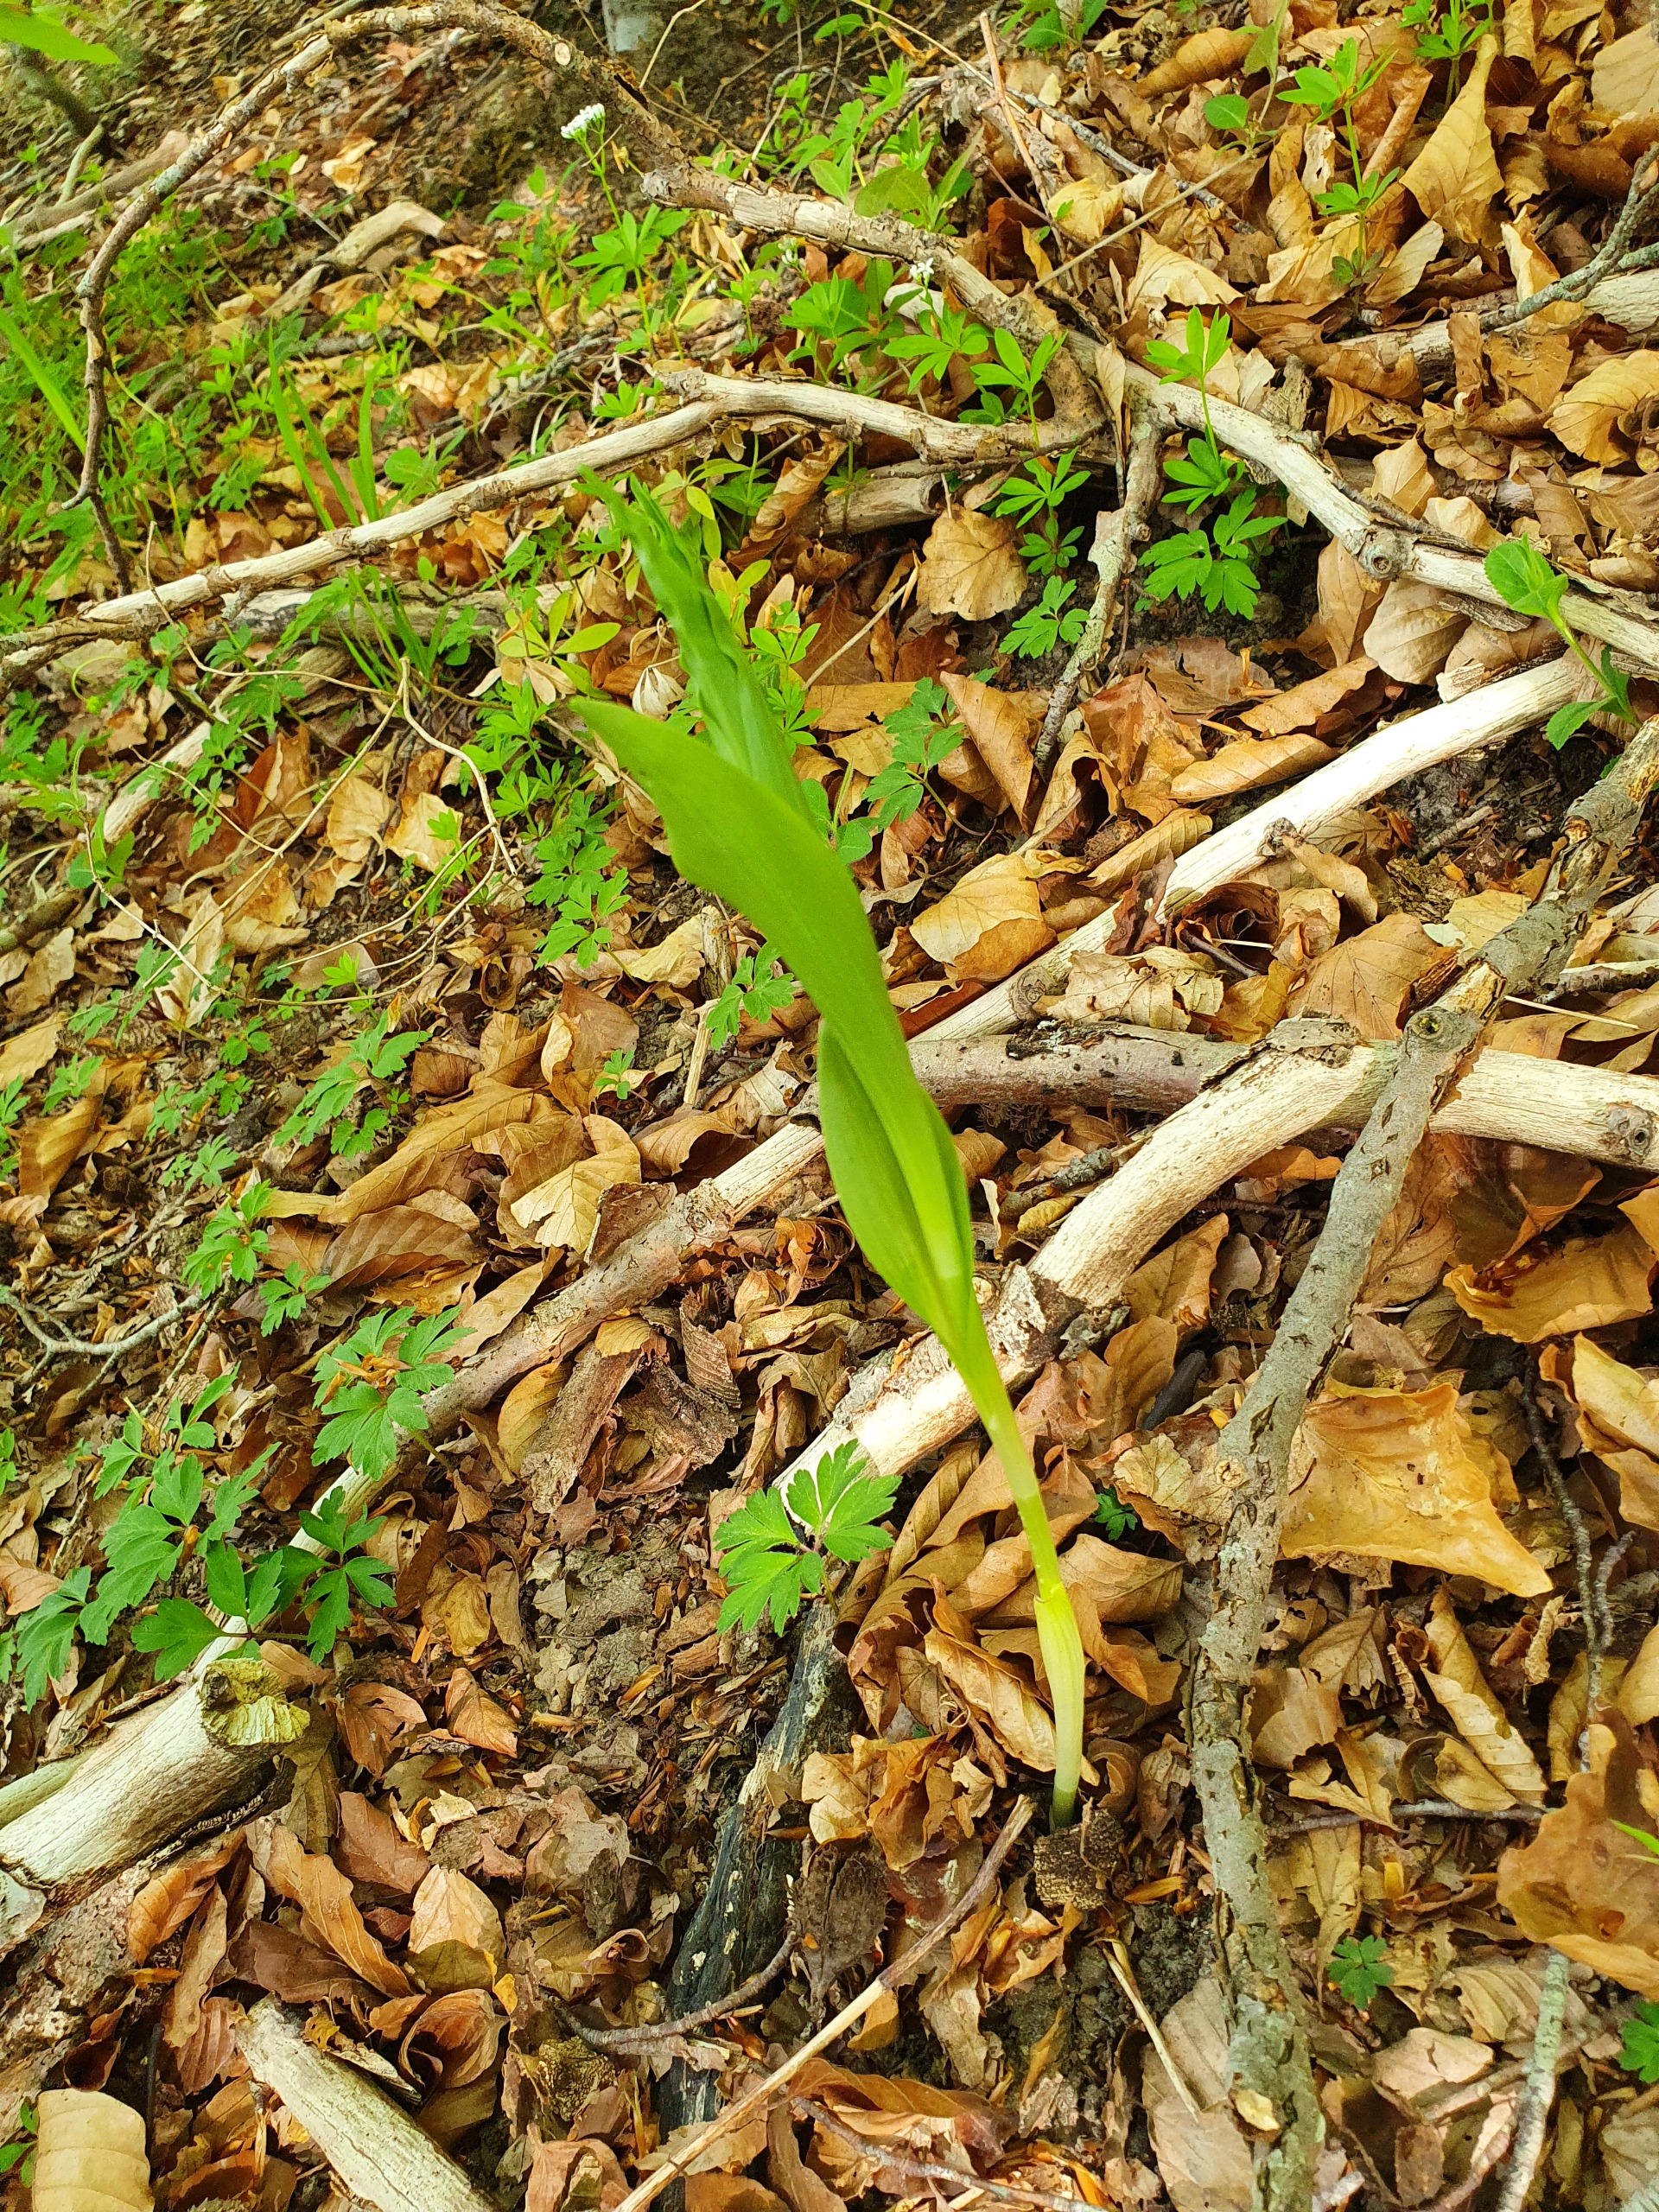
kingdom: Plantae
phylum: Tracheophyta
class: Liliopsida
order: Asparagales
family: Orchidaceae
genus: Cephalanthera
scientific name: Cephalanthera damasonium
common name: Hvidgul skovlilje
